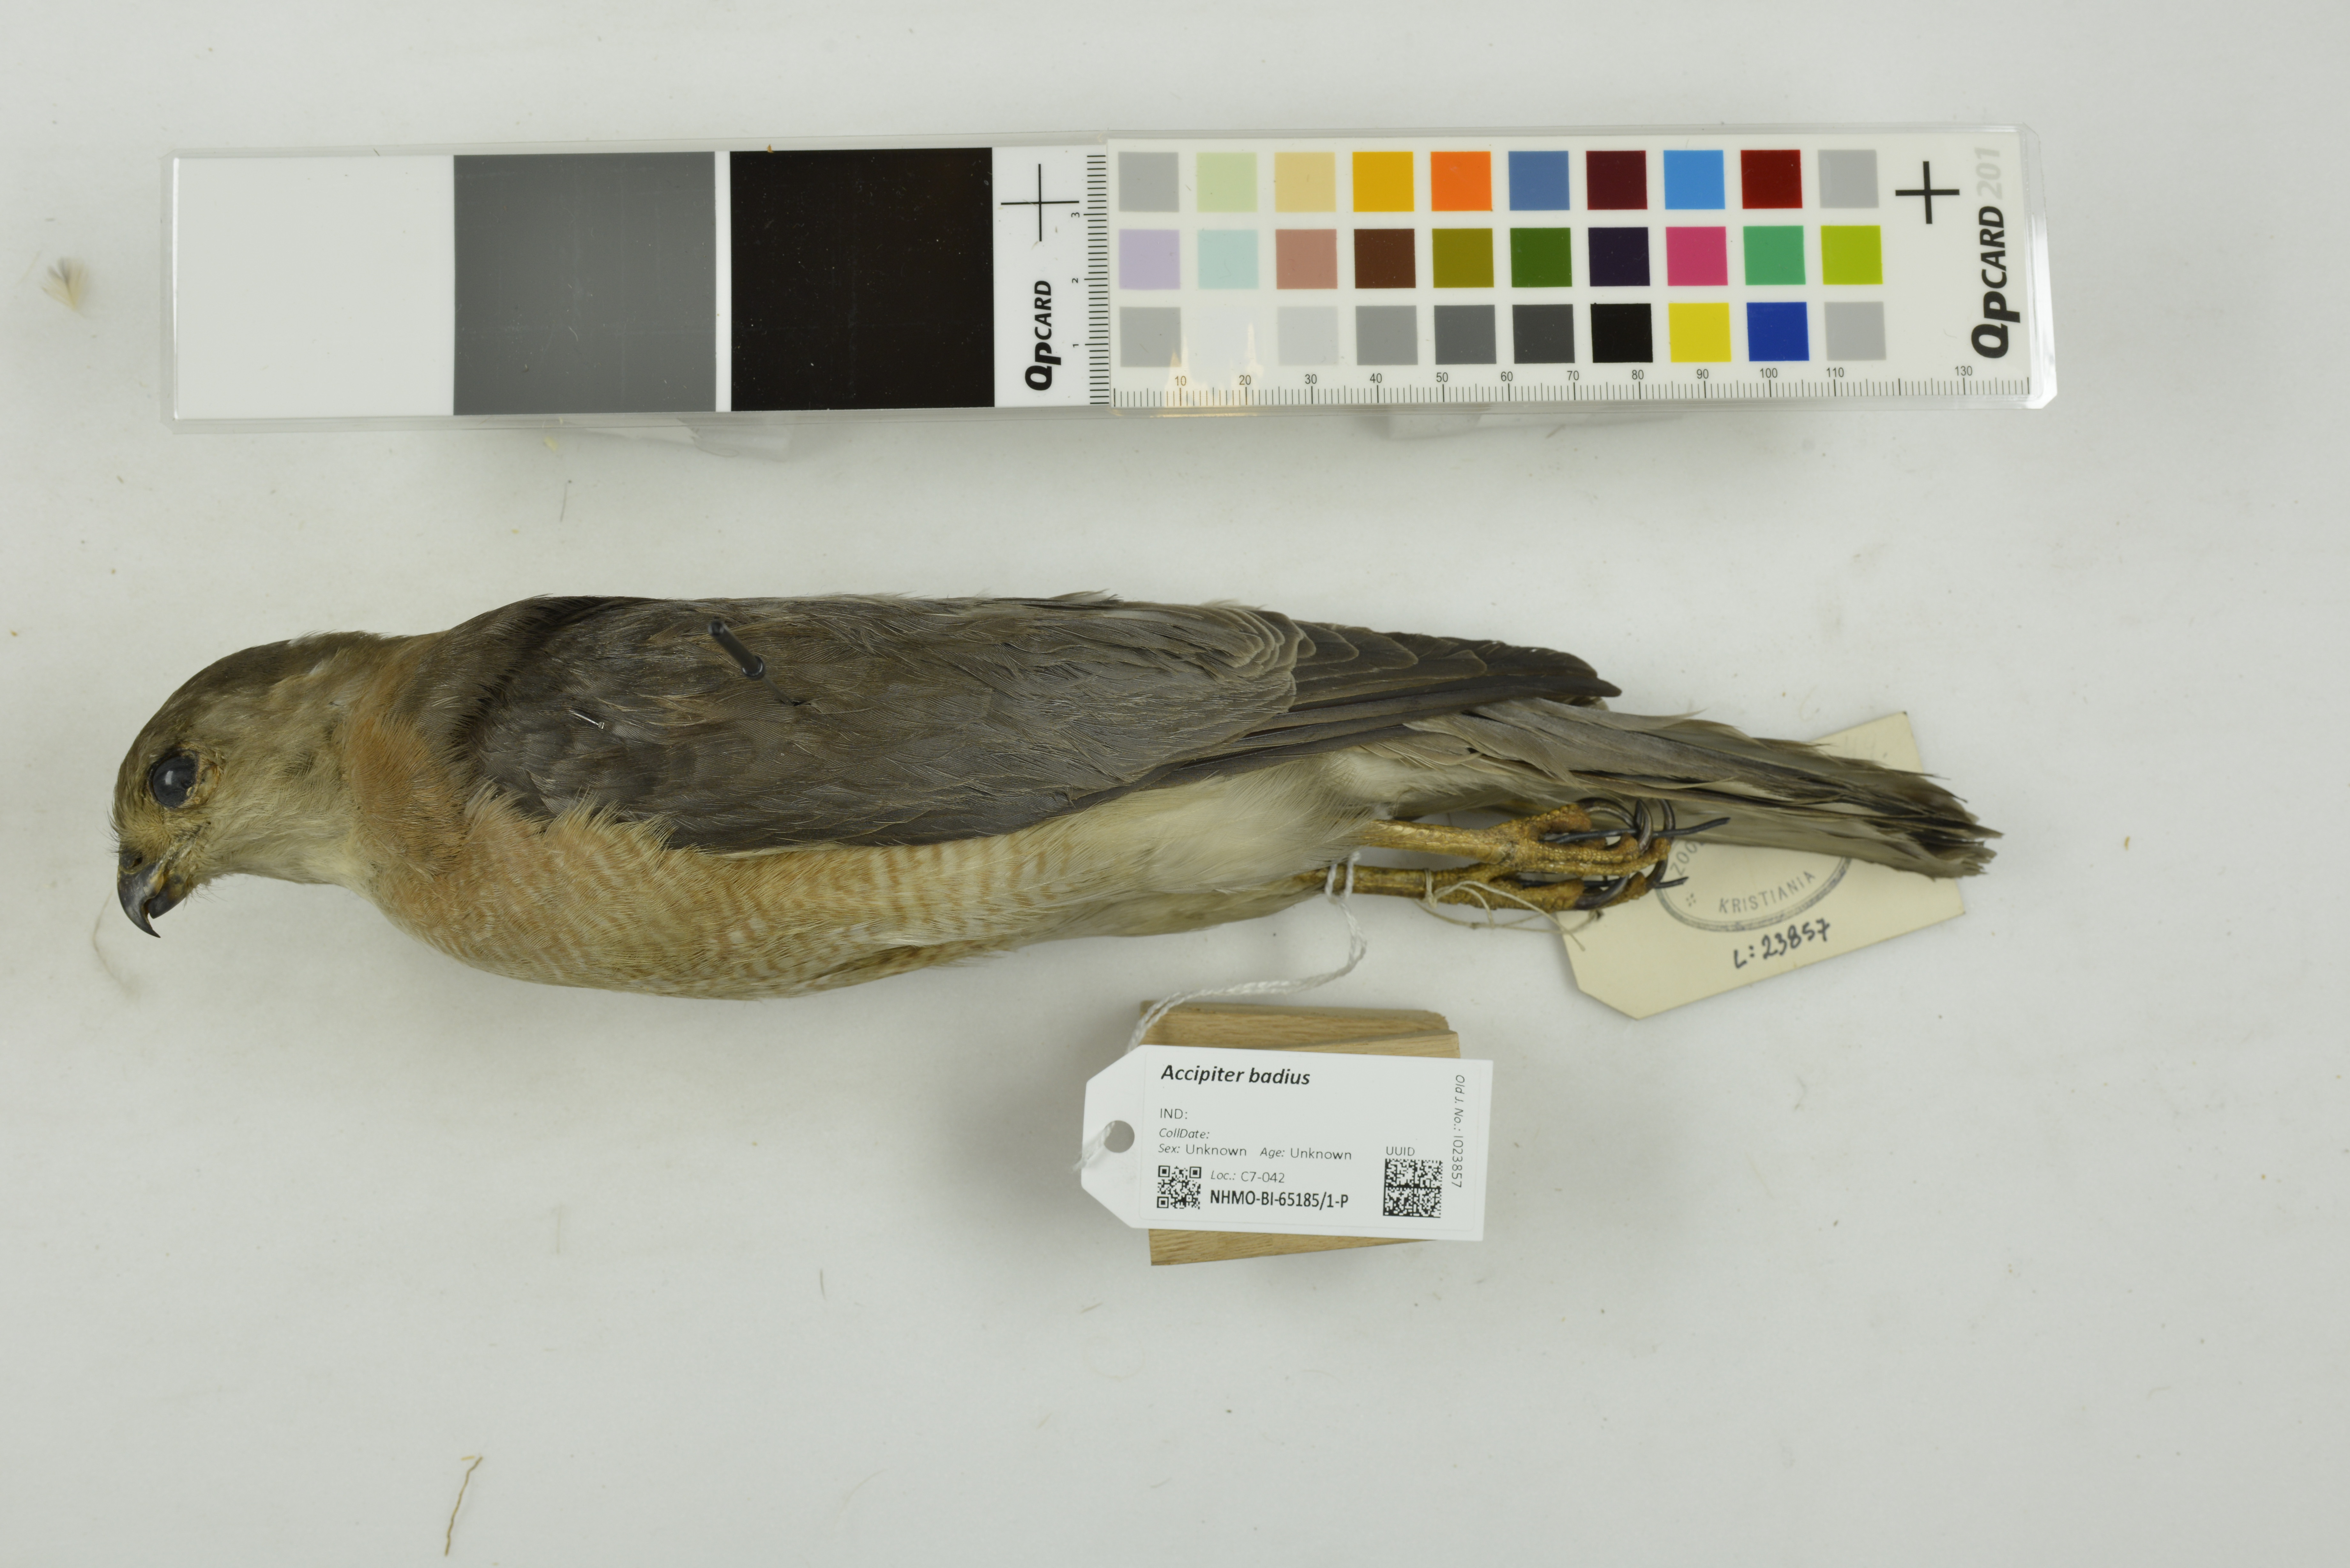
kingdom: Animalia
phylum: Chordata
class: Aves
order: Accipitriformes
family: Accipitridae
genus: Accipiter
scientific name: Accipiter badius
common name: Shikra
